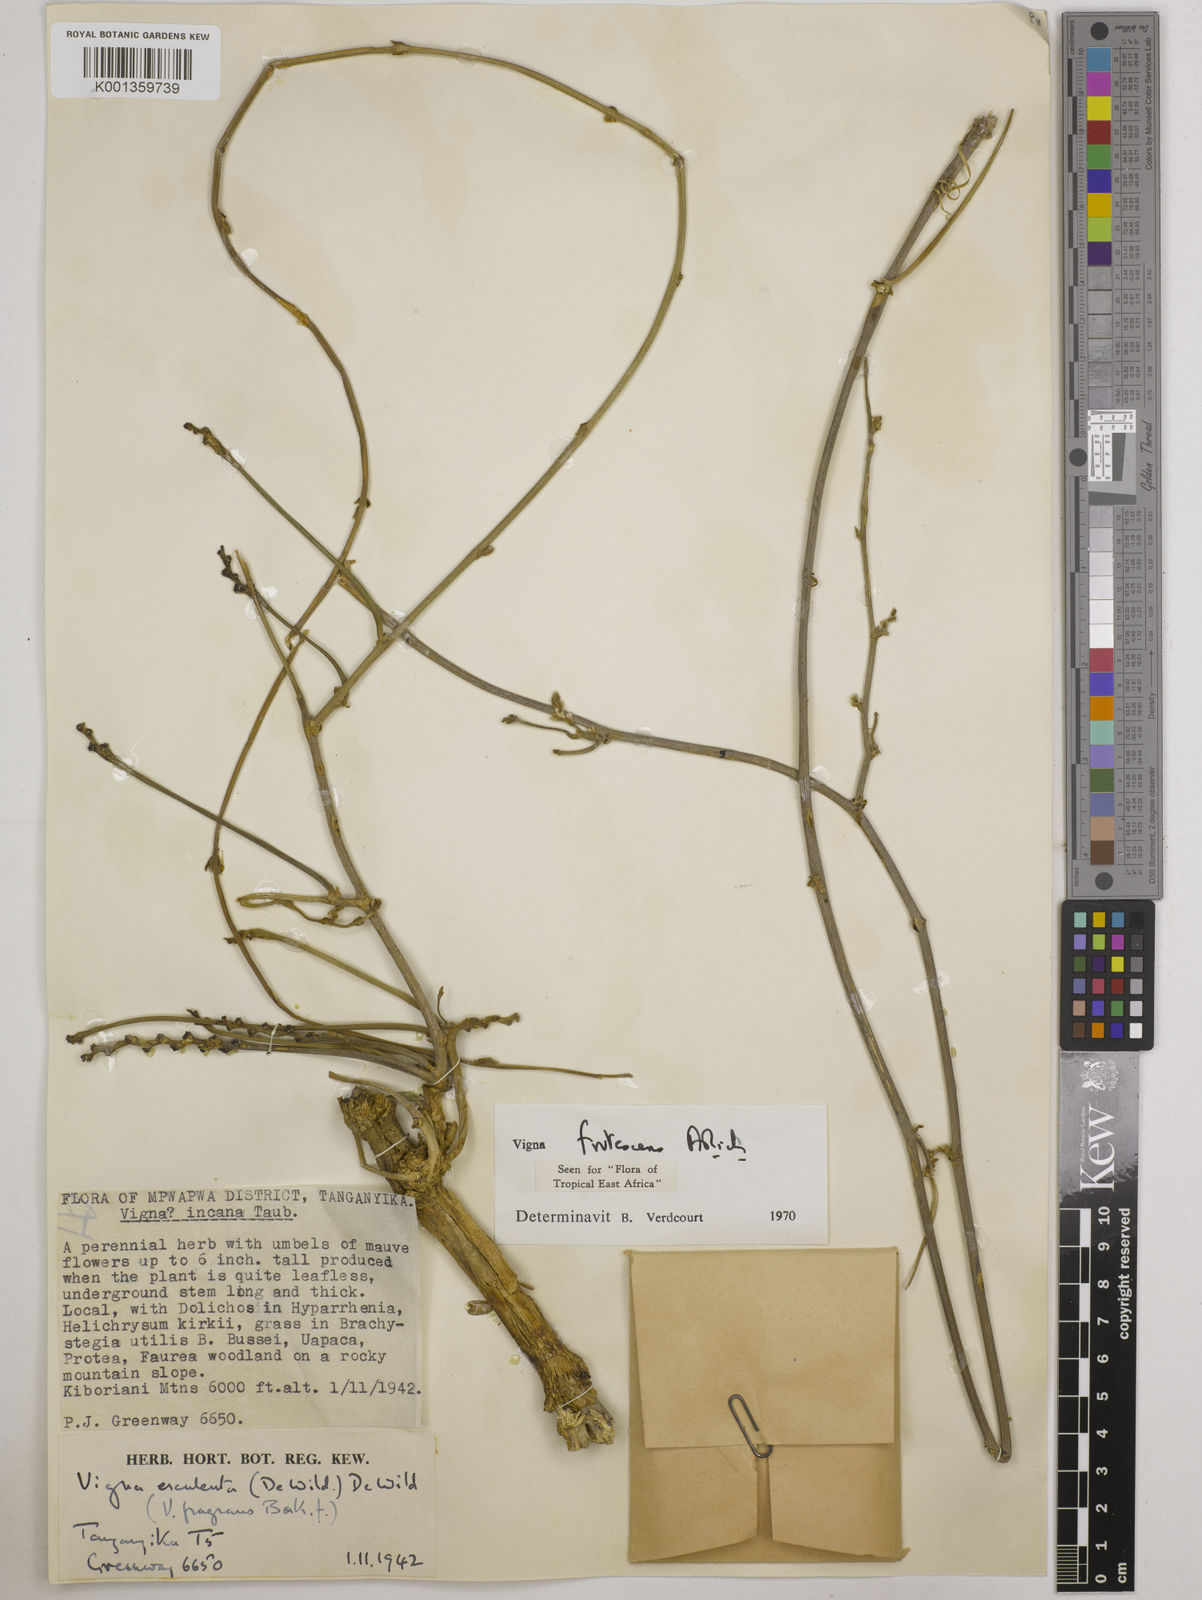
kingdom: Plantae
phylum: Tracheophyta
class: Magnoliopsida
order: Fabales
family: Fabaceae
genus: Vigna
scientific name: Vigna frutescens
